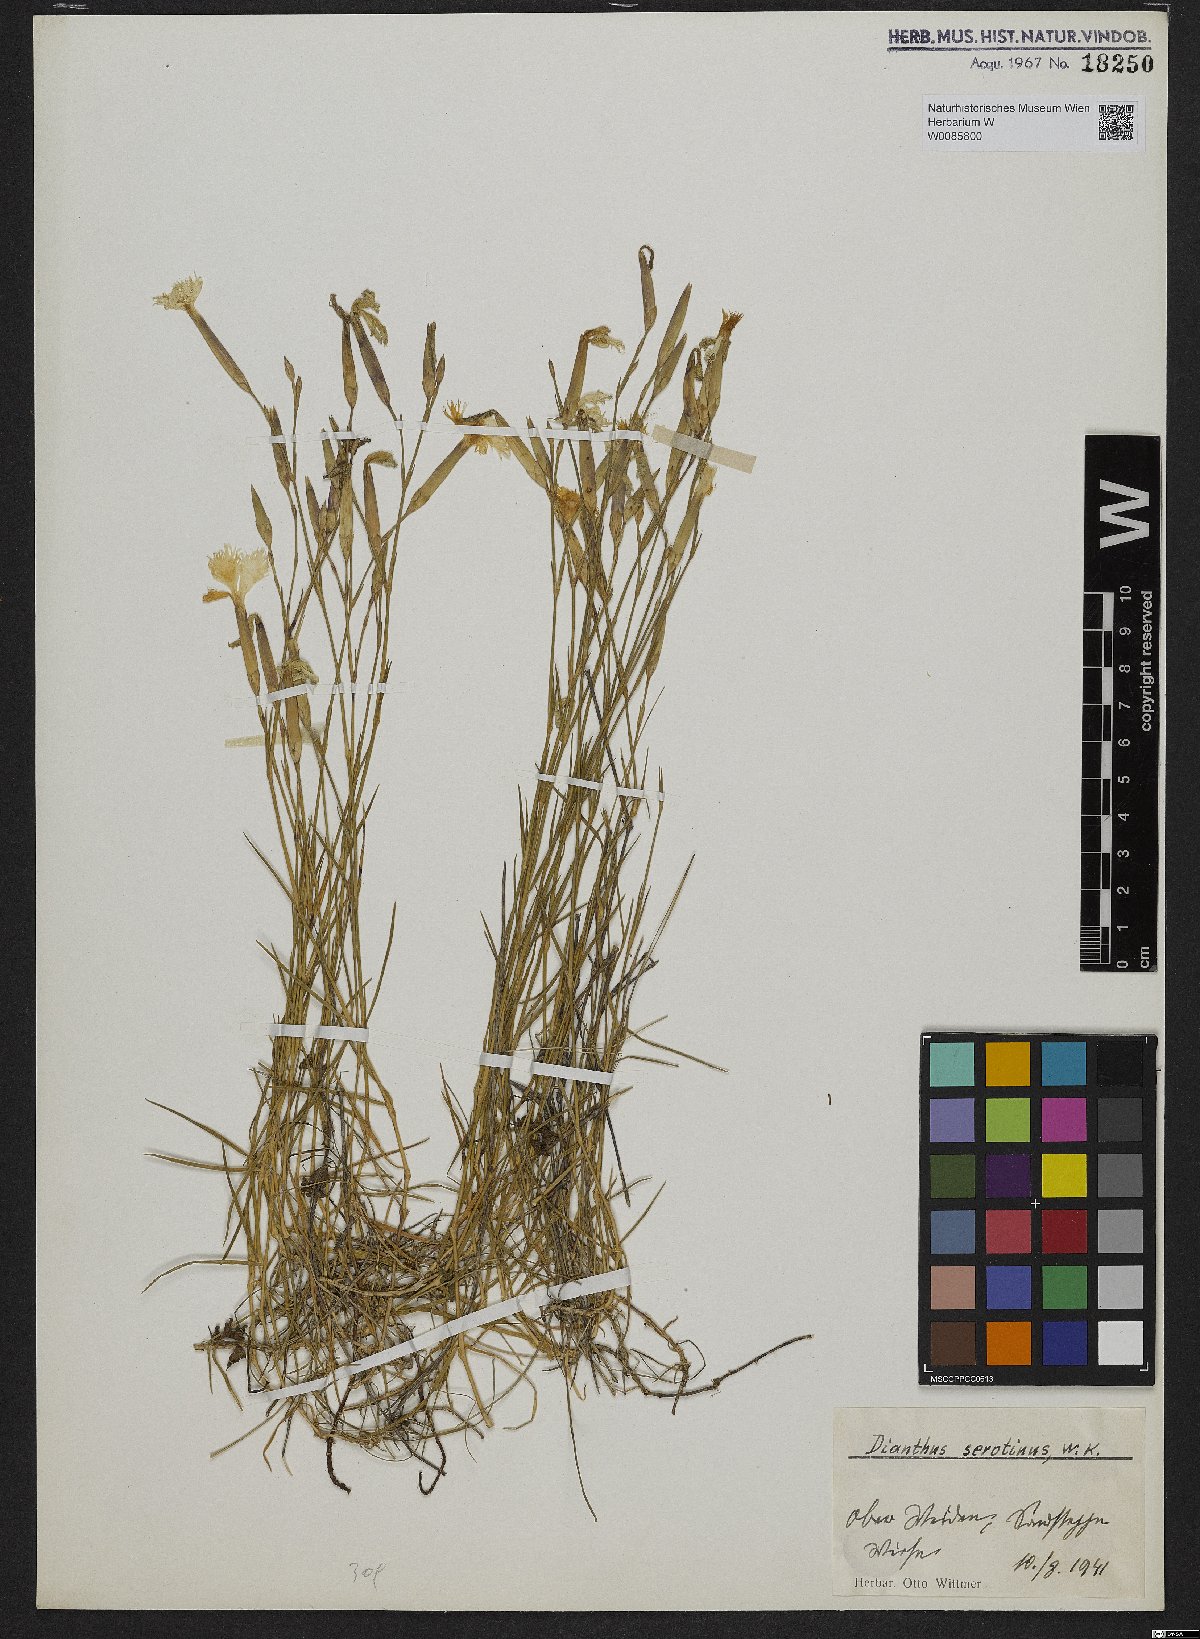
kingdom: Plantae
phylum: Tracheophyta
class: Magnoliopsida
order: Caryophyllales
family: Caryophyllaceae
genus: Dianthus
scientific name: Dianthus serotinus
